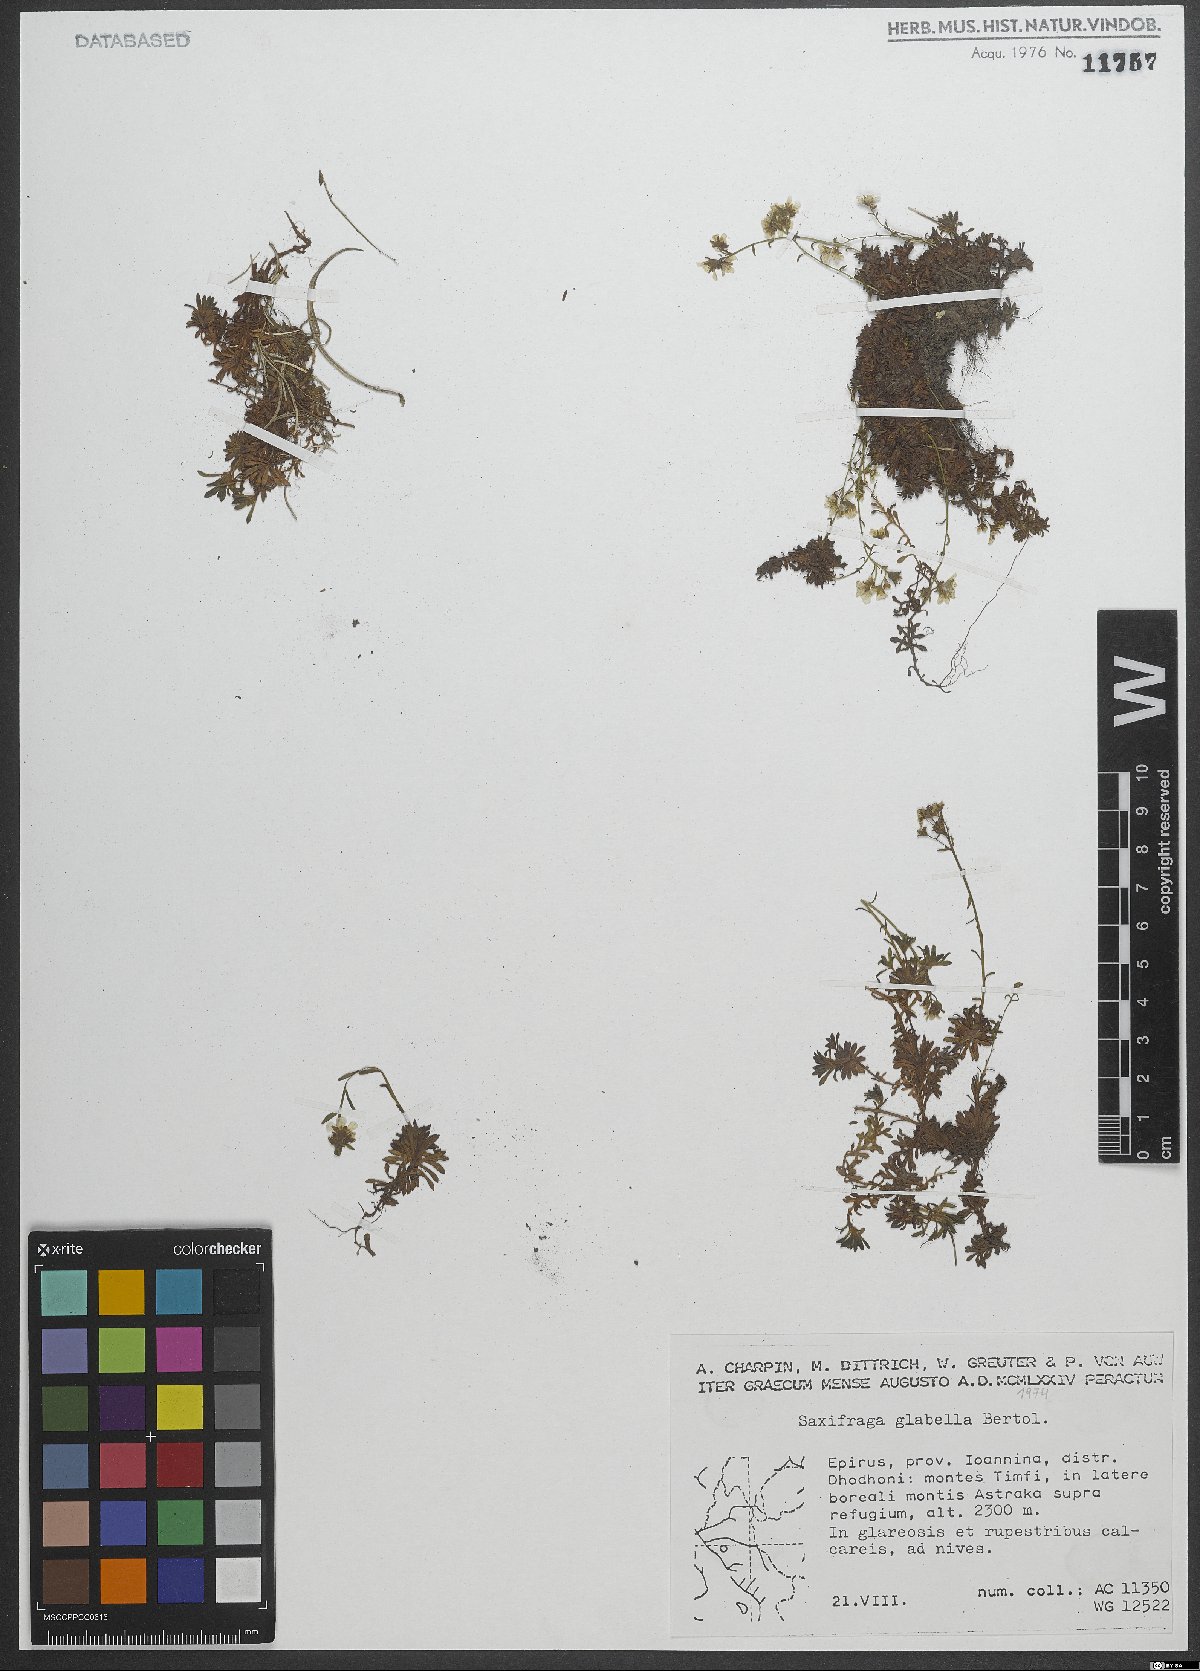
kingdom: Plantae
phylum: Tracheophyta
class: Magnoliopsida
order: Saxifragales
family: Saxifragaceae
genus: Saxifraga
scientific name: Saxifraga glabella
